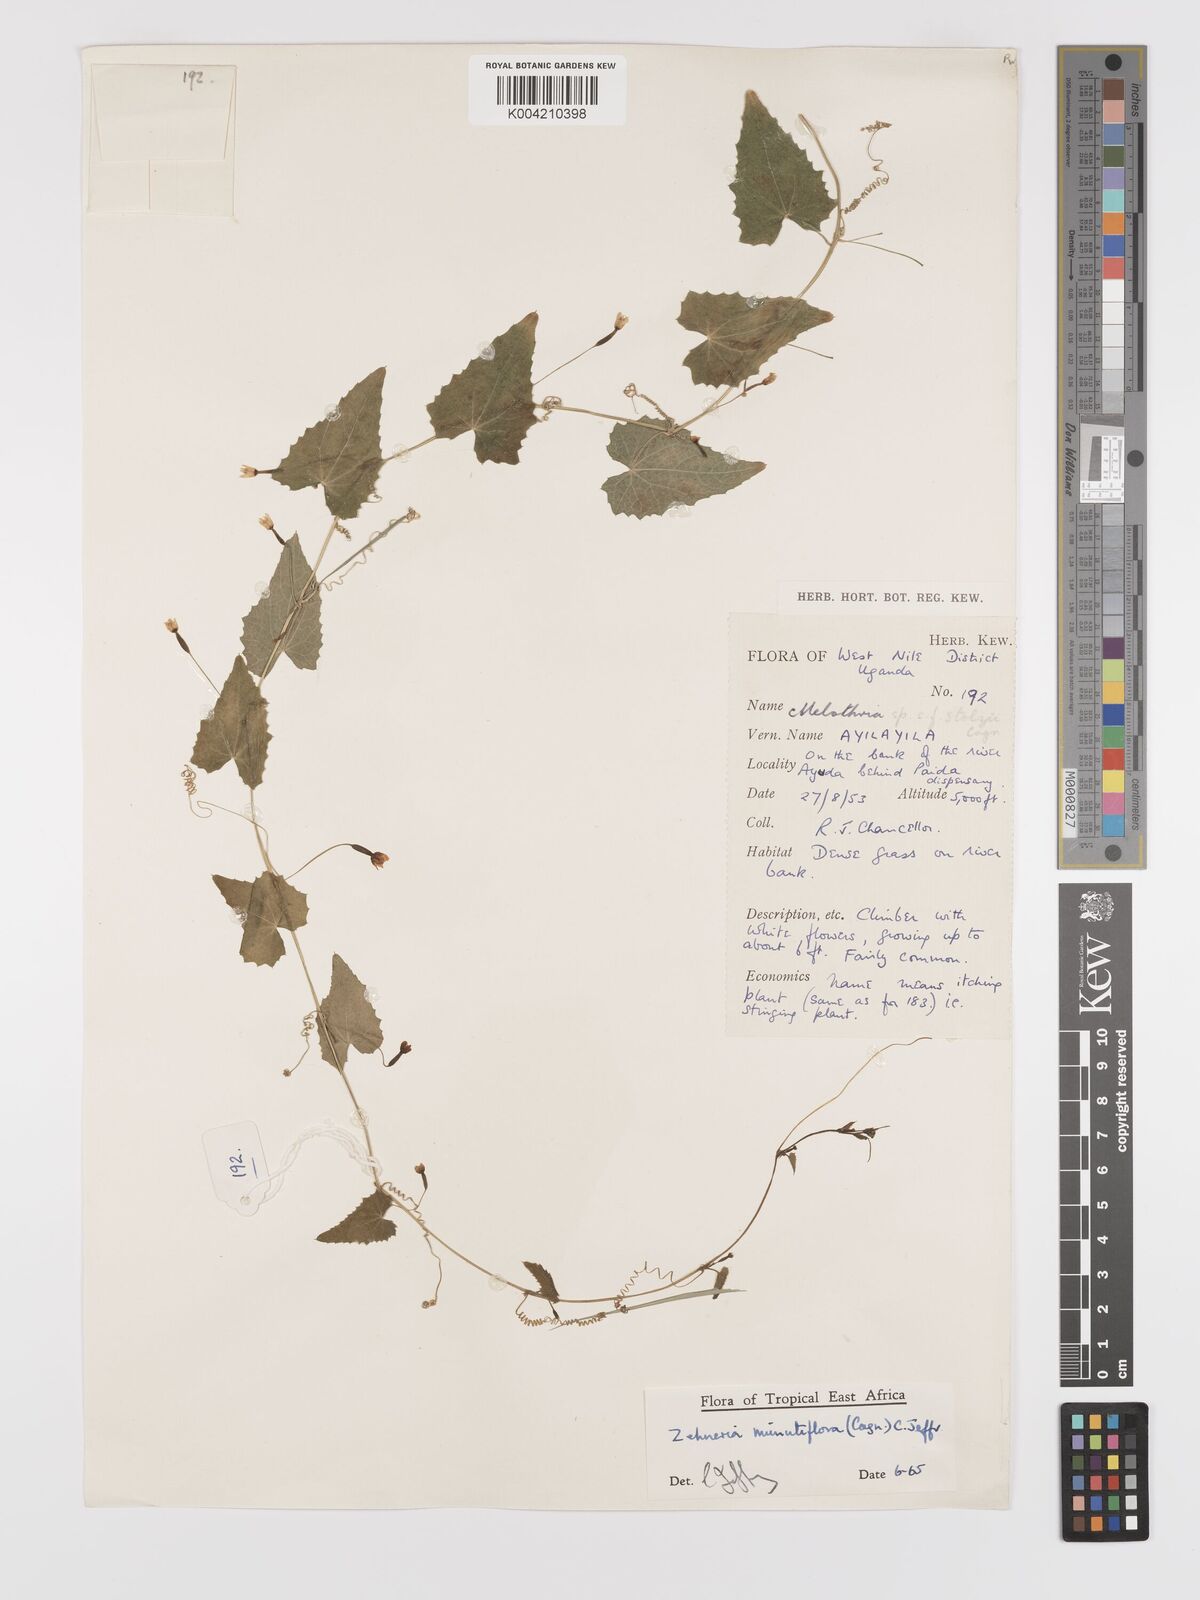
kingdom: Plantae
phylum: Tracheophyta
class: Magnoliopsida
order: Cucurbitales
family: Cucurbitaceae
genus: Zehneria
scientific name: Zehneria minutiflora
